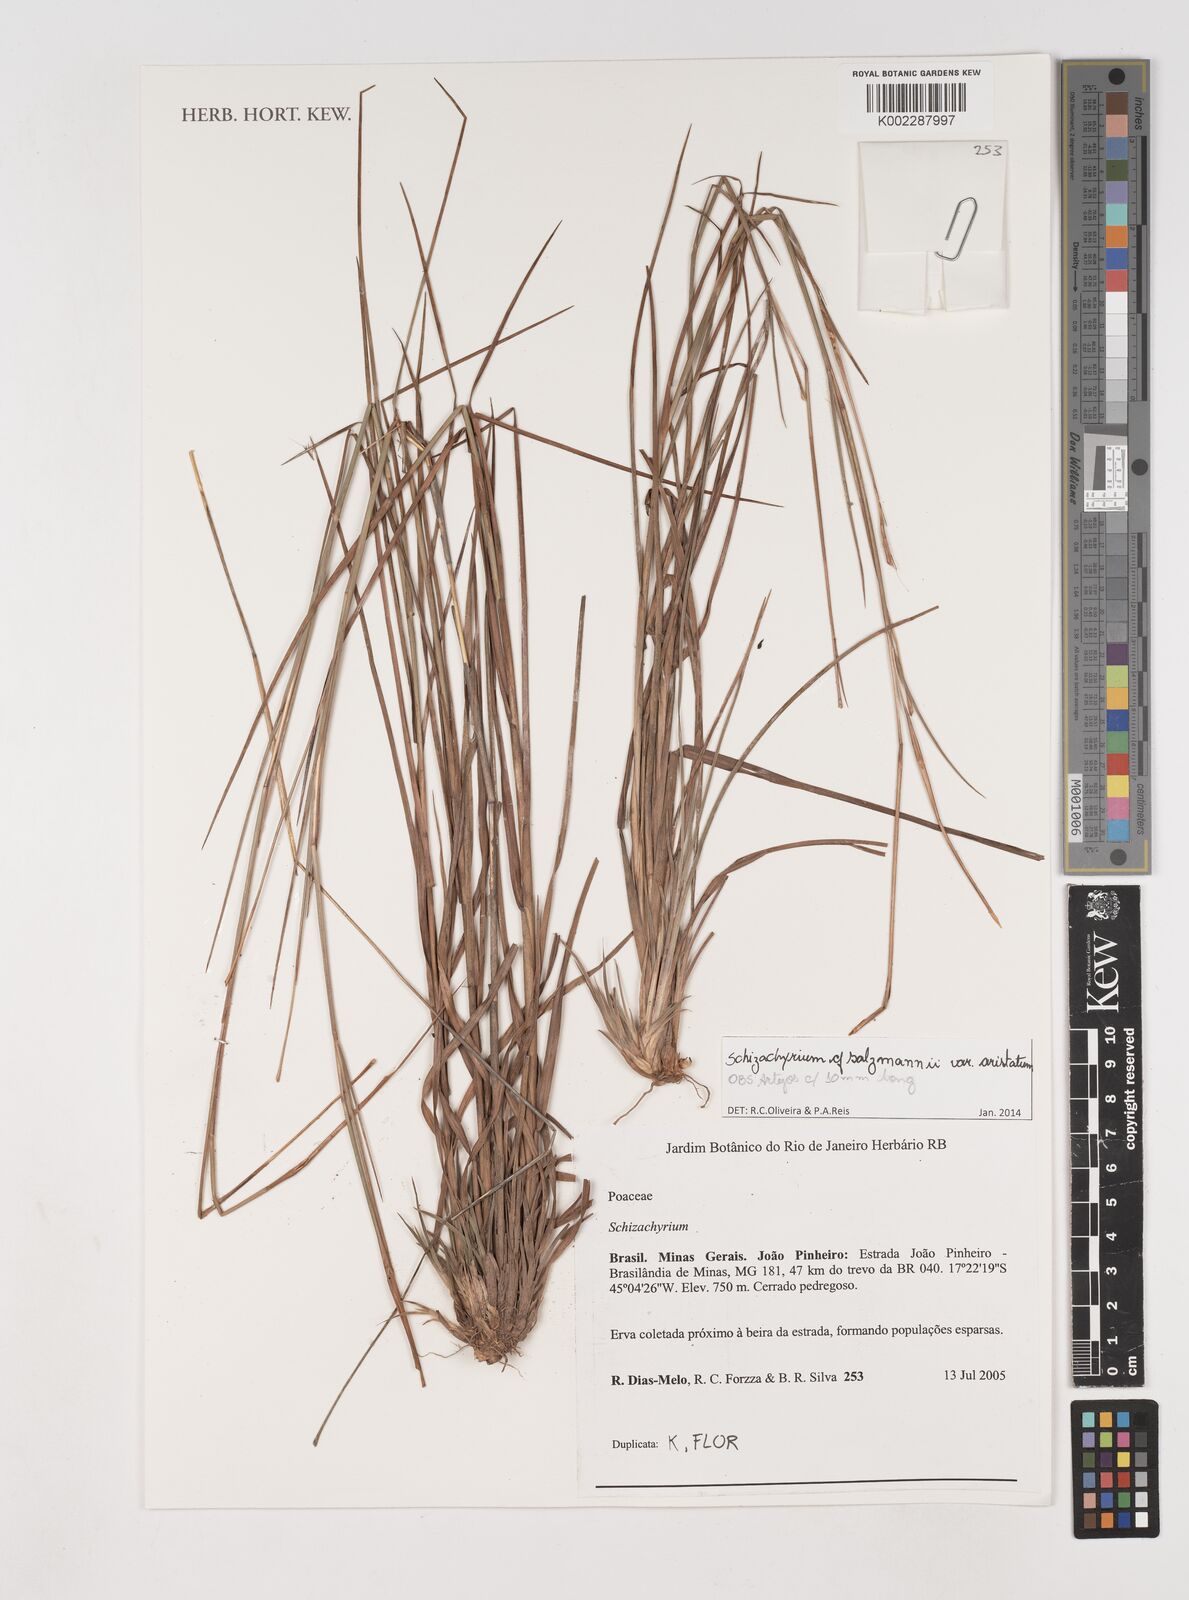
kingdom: Plantae
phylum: Tracheophyta
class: Liliopsida
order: Poales
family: Poaceae
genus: Andropogon
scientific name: Andropogon salzmannii
